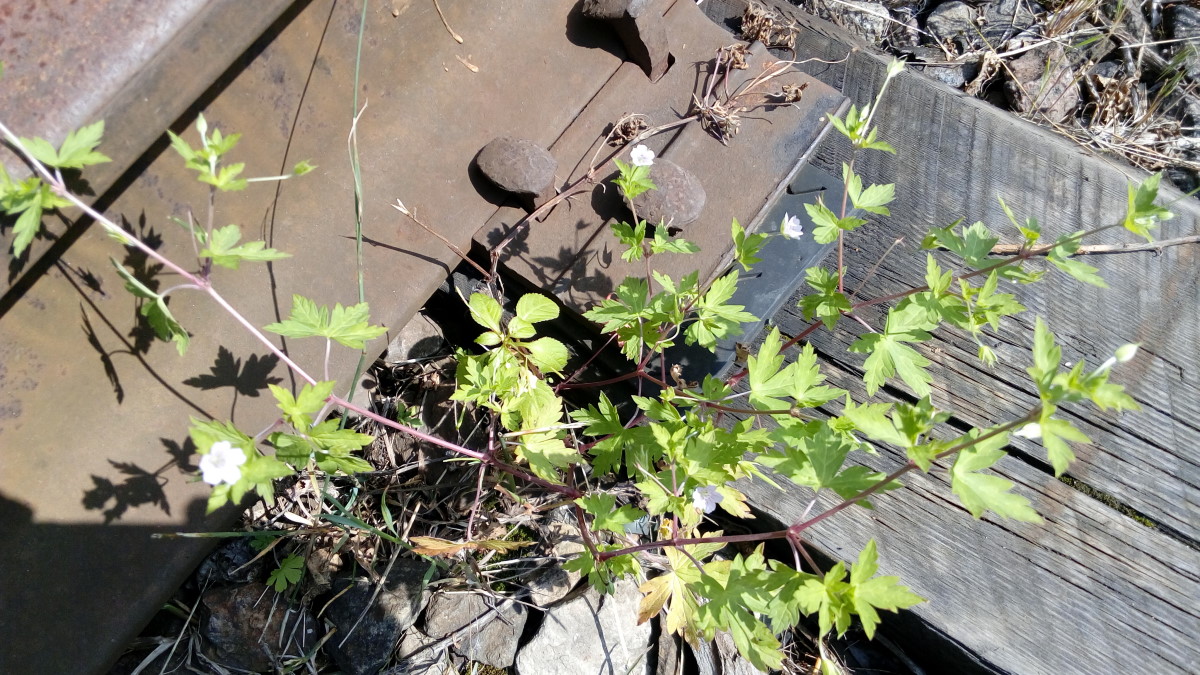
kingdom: Plantae
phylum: Tracheophyta
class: Magnoliopsida
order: Geraniales
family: Geraniaceae
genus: Geranium
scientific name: Geranium sibiricum
